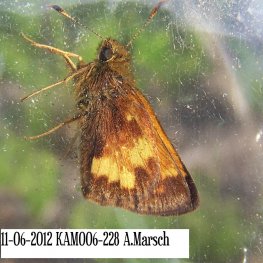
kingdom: Animalia
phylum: Arthropoda
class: Insecta
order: Lepidoptera
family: Hesperiidae
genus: Lon
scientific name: Lon hobomok
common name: Hobomok Skipper
